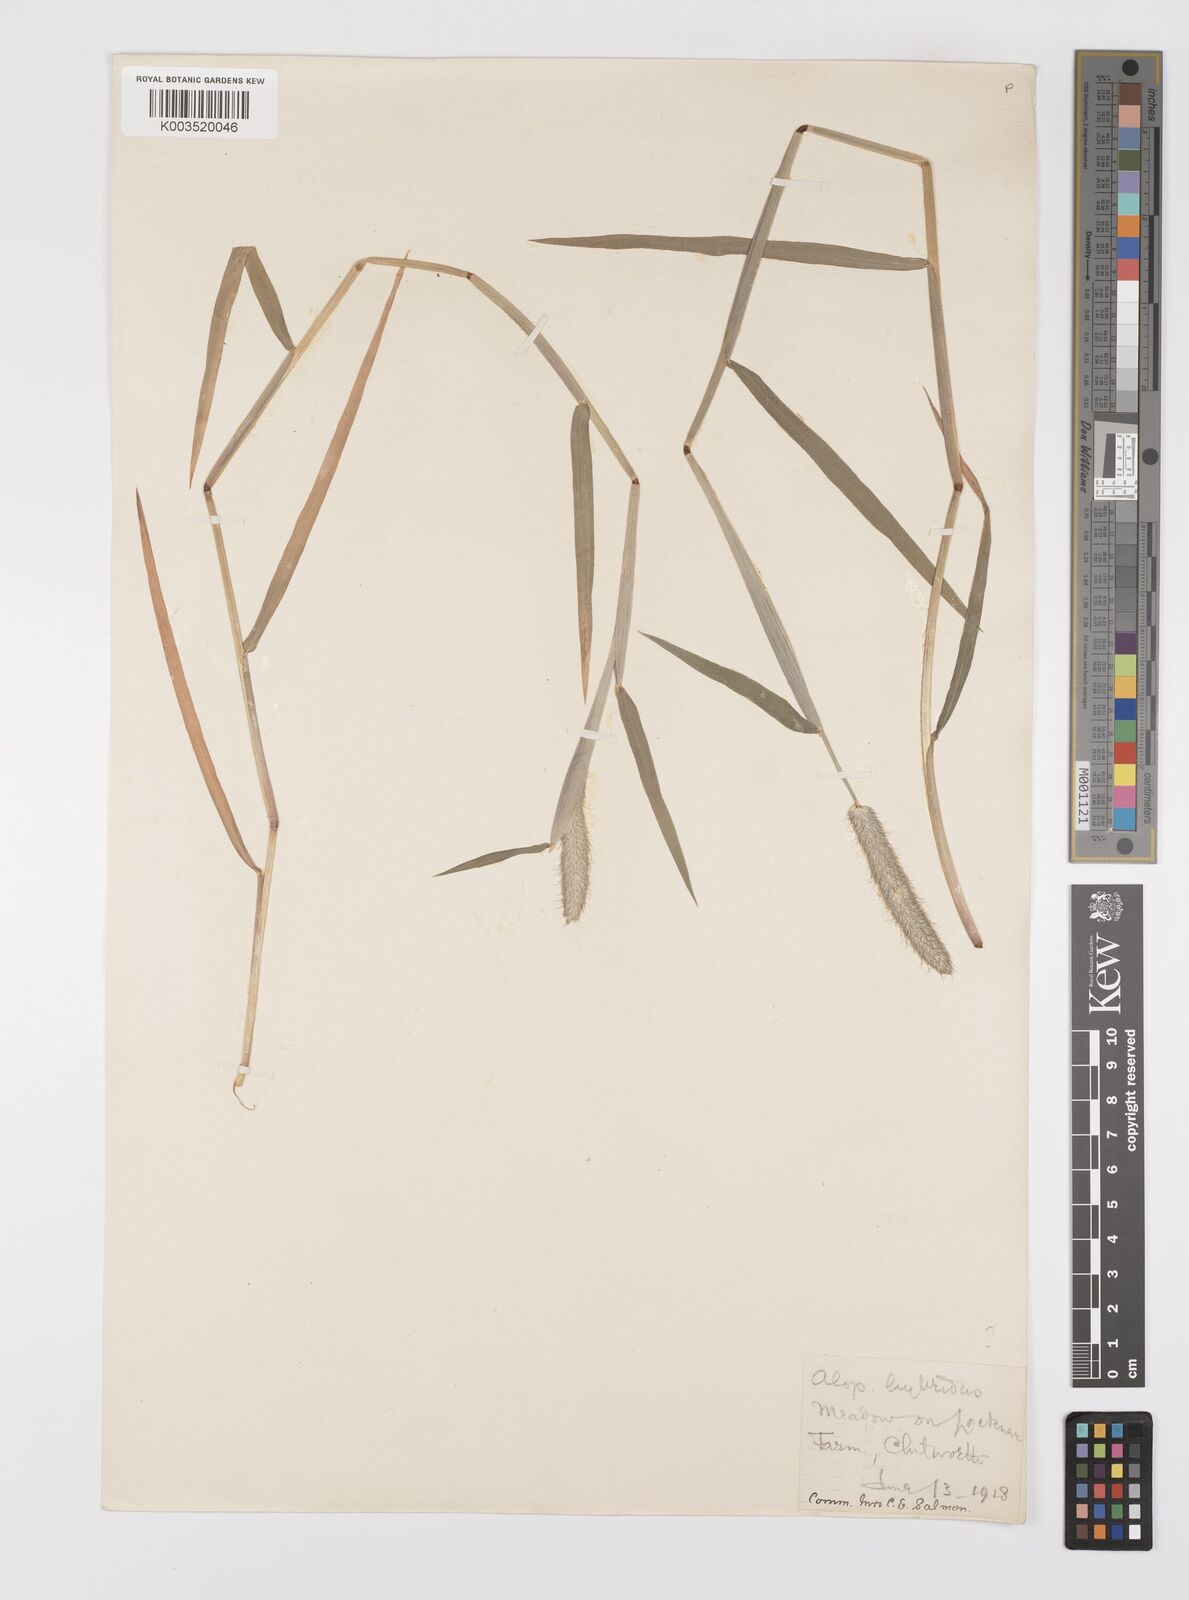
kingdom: Plantae
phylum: Tracheophyta
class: Liliopsida
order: Poales
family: Poaceae
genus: Alopecurus
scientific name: Alopecurus brachystylus
